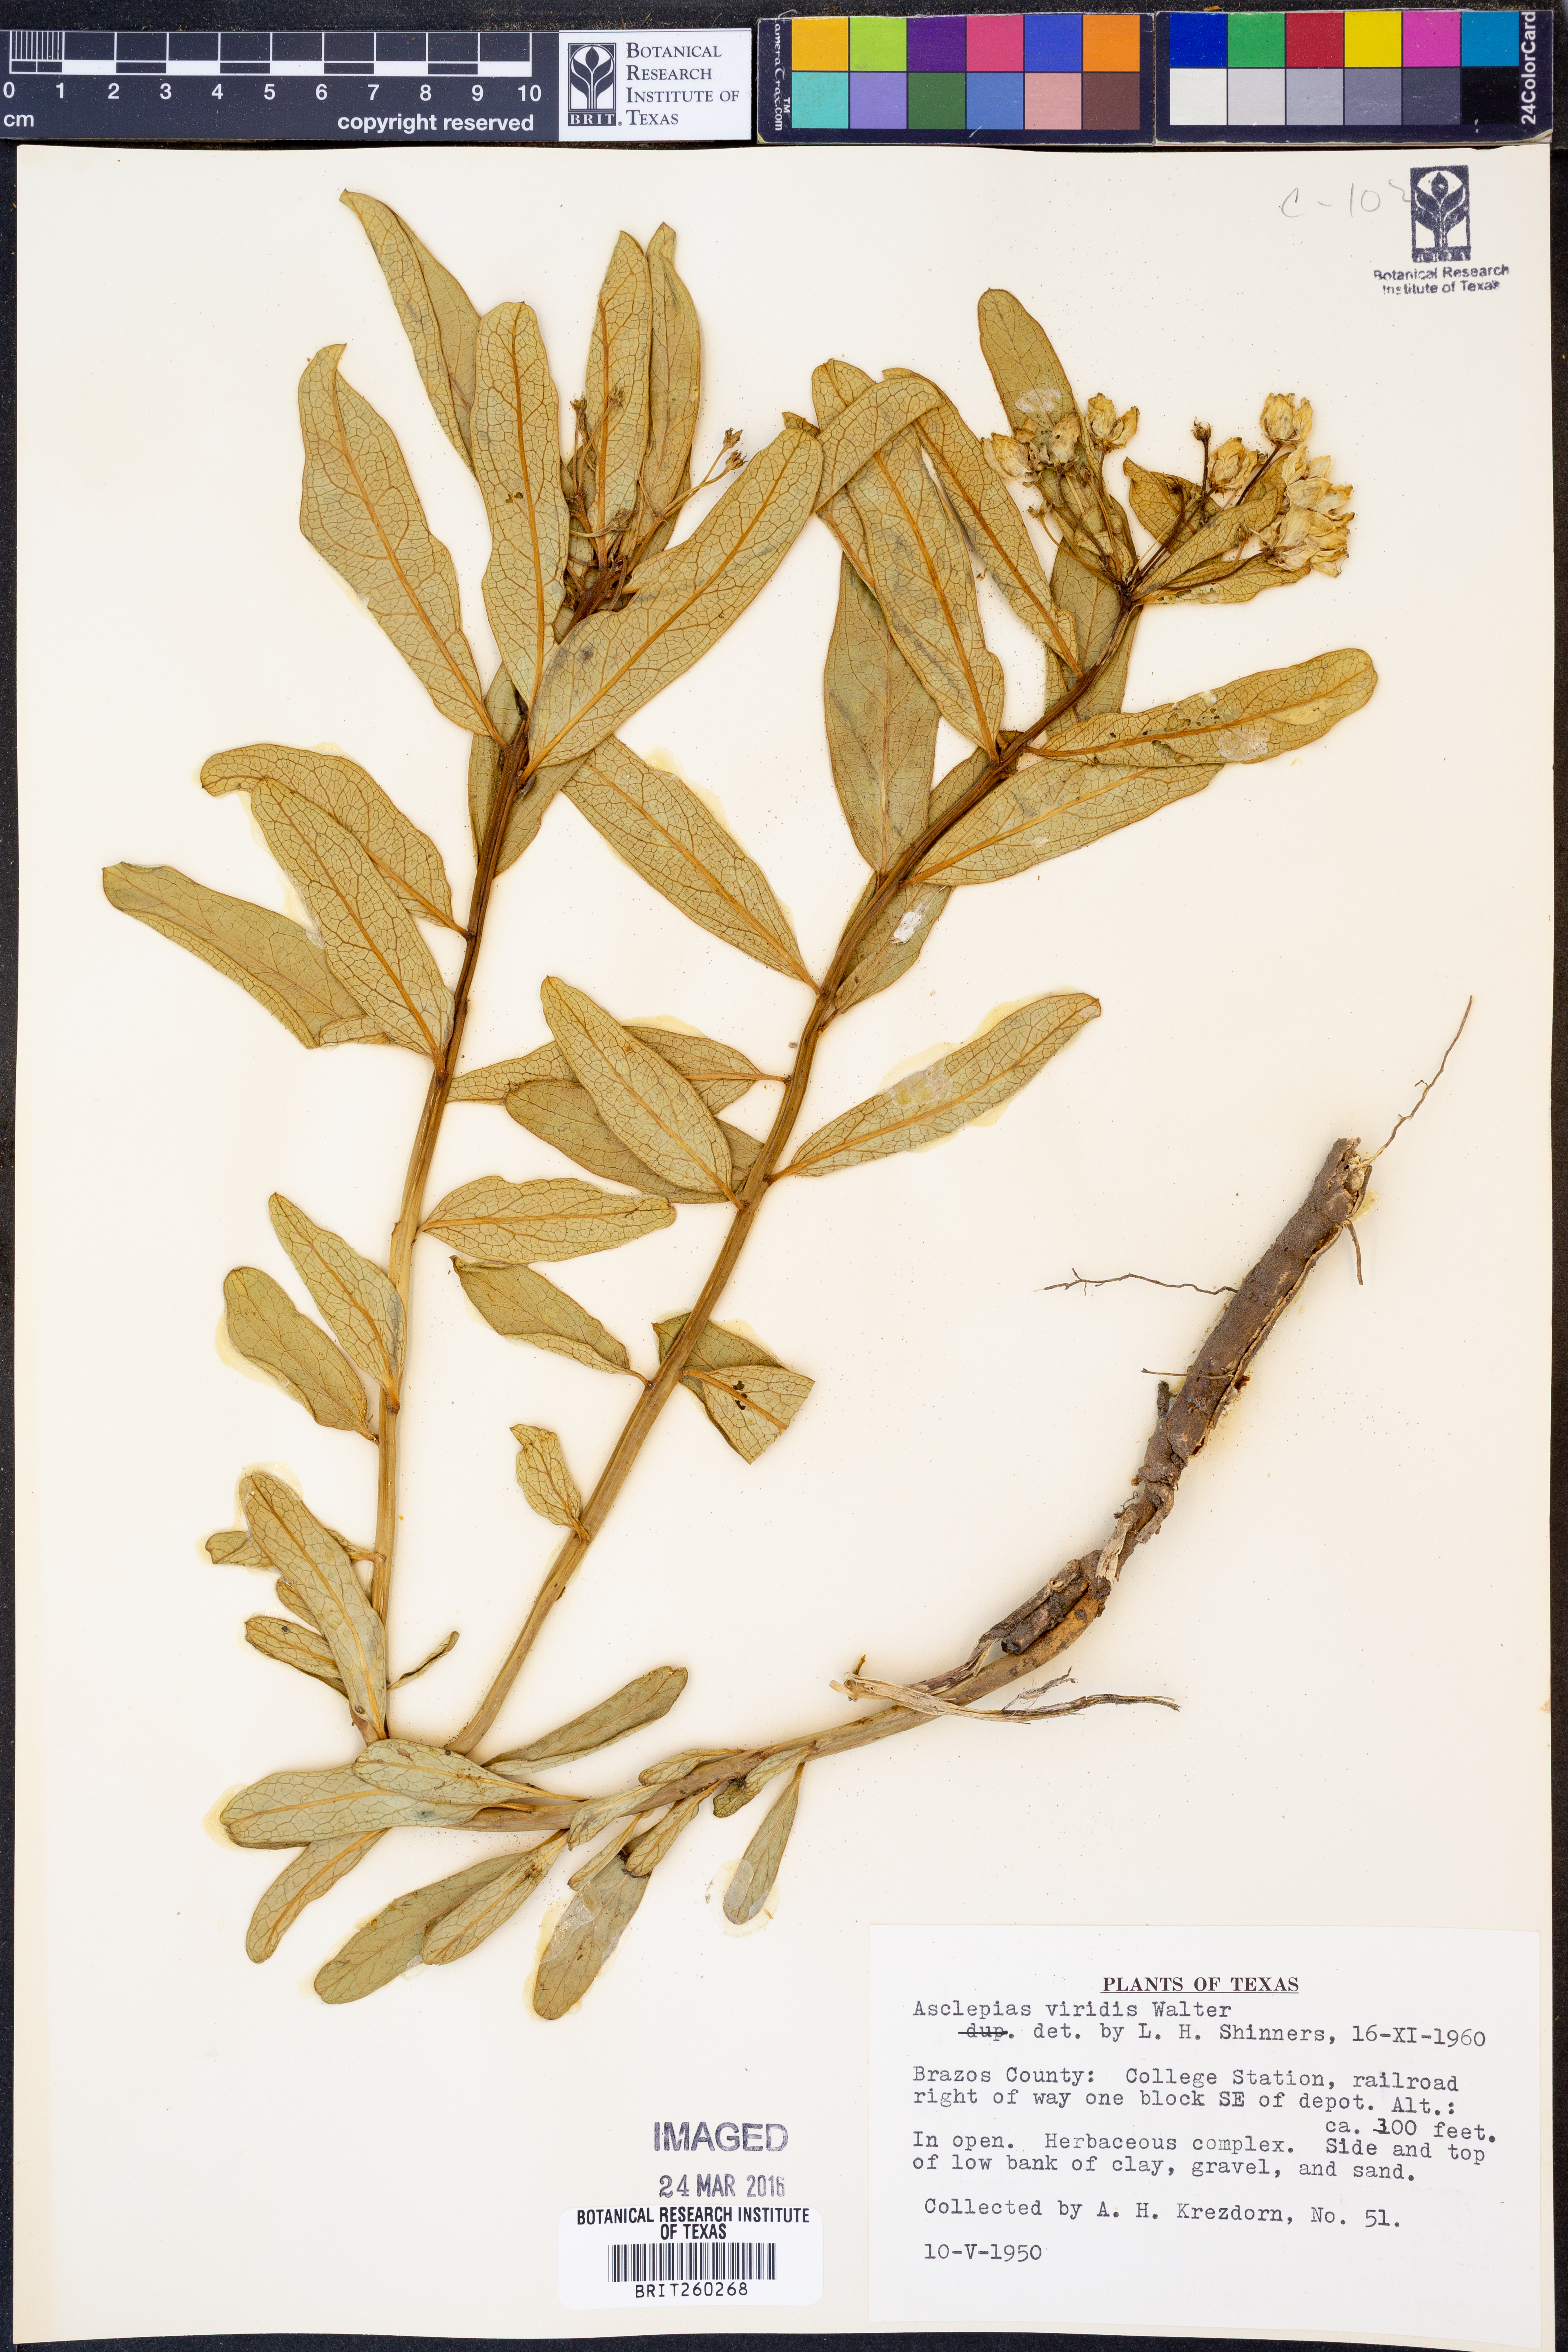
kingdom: Plantae
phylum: Tracheophyta
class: Magnoliopsida
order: Gentianales
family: Apocynaceae
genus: Asclepias
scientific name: Asclepias viridis
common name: Antelope-horns
